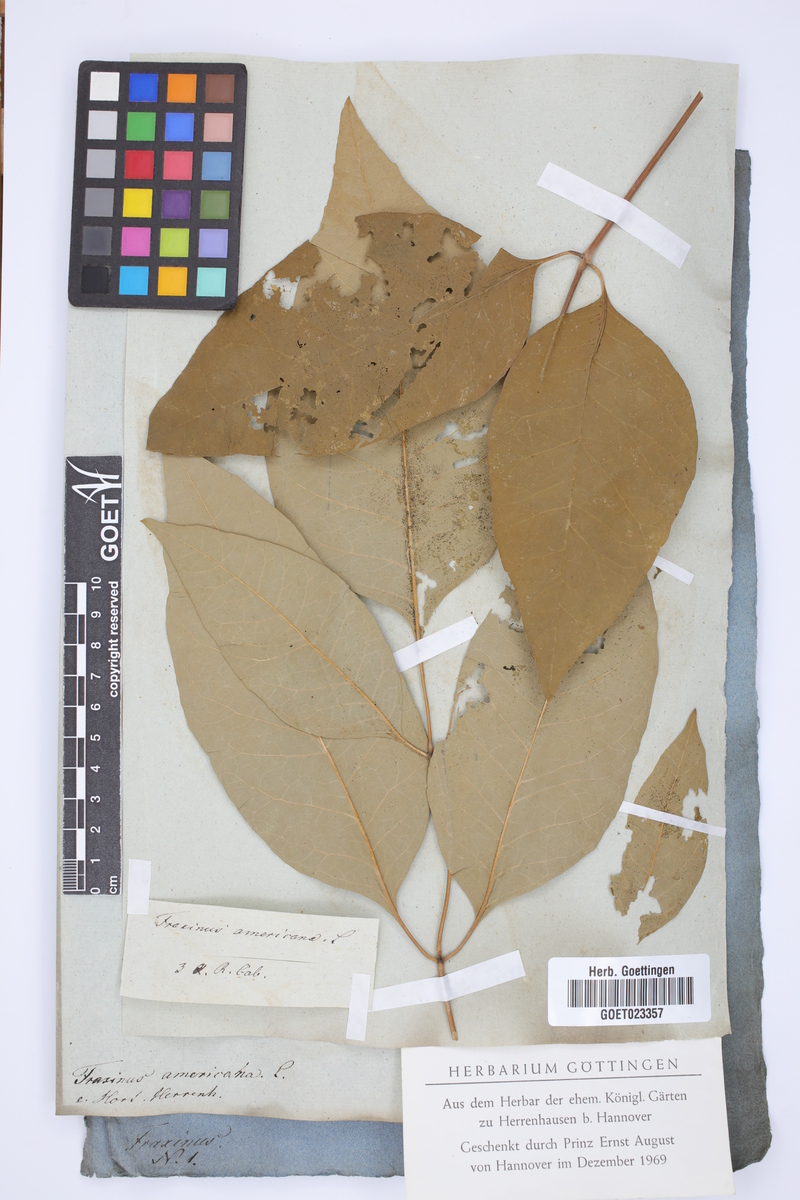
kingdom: Plantae
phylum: Tracheophyta
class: Magnoliopsida
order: Lamiales
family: Oleaceae
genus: Fraxinus
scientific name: Fraxinus americana
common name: White ash
